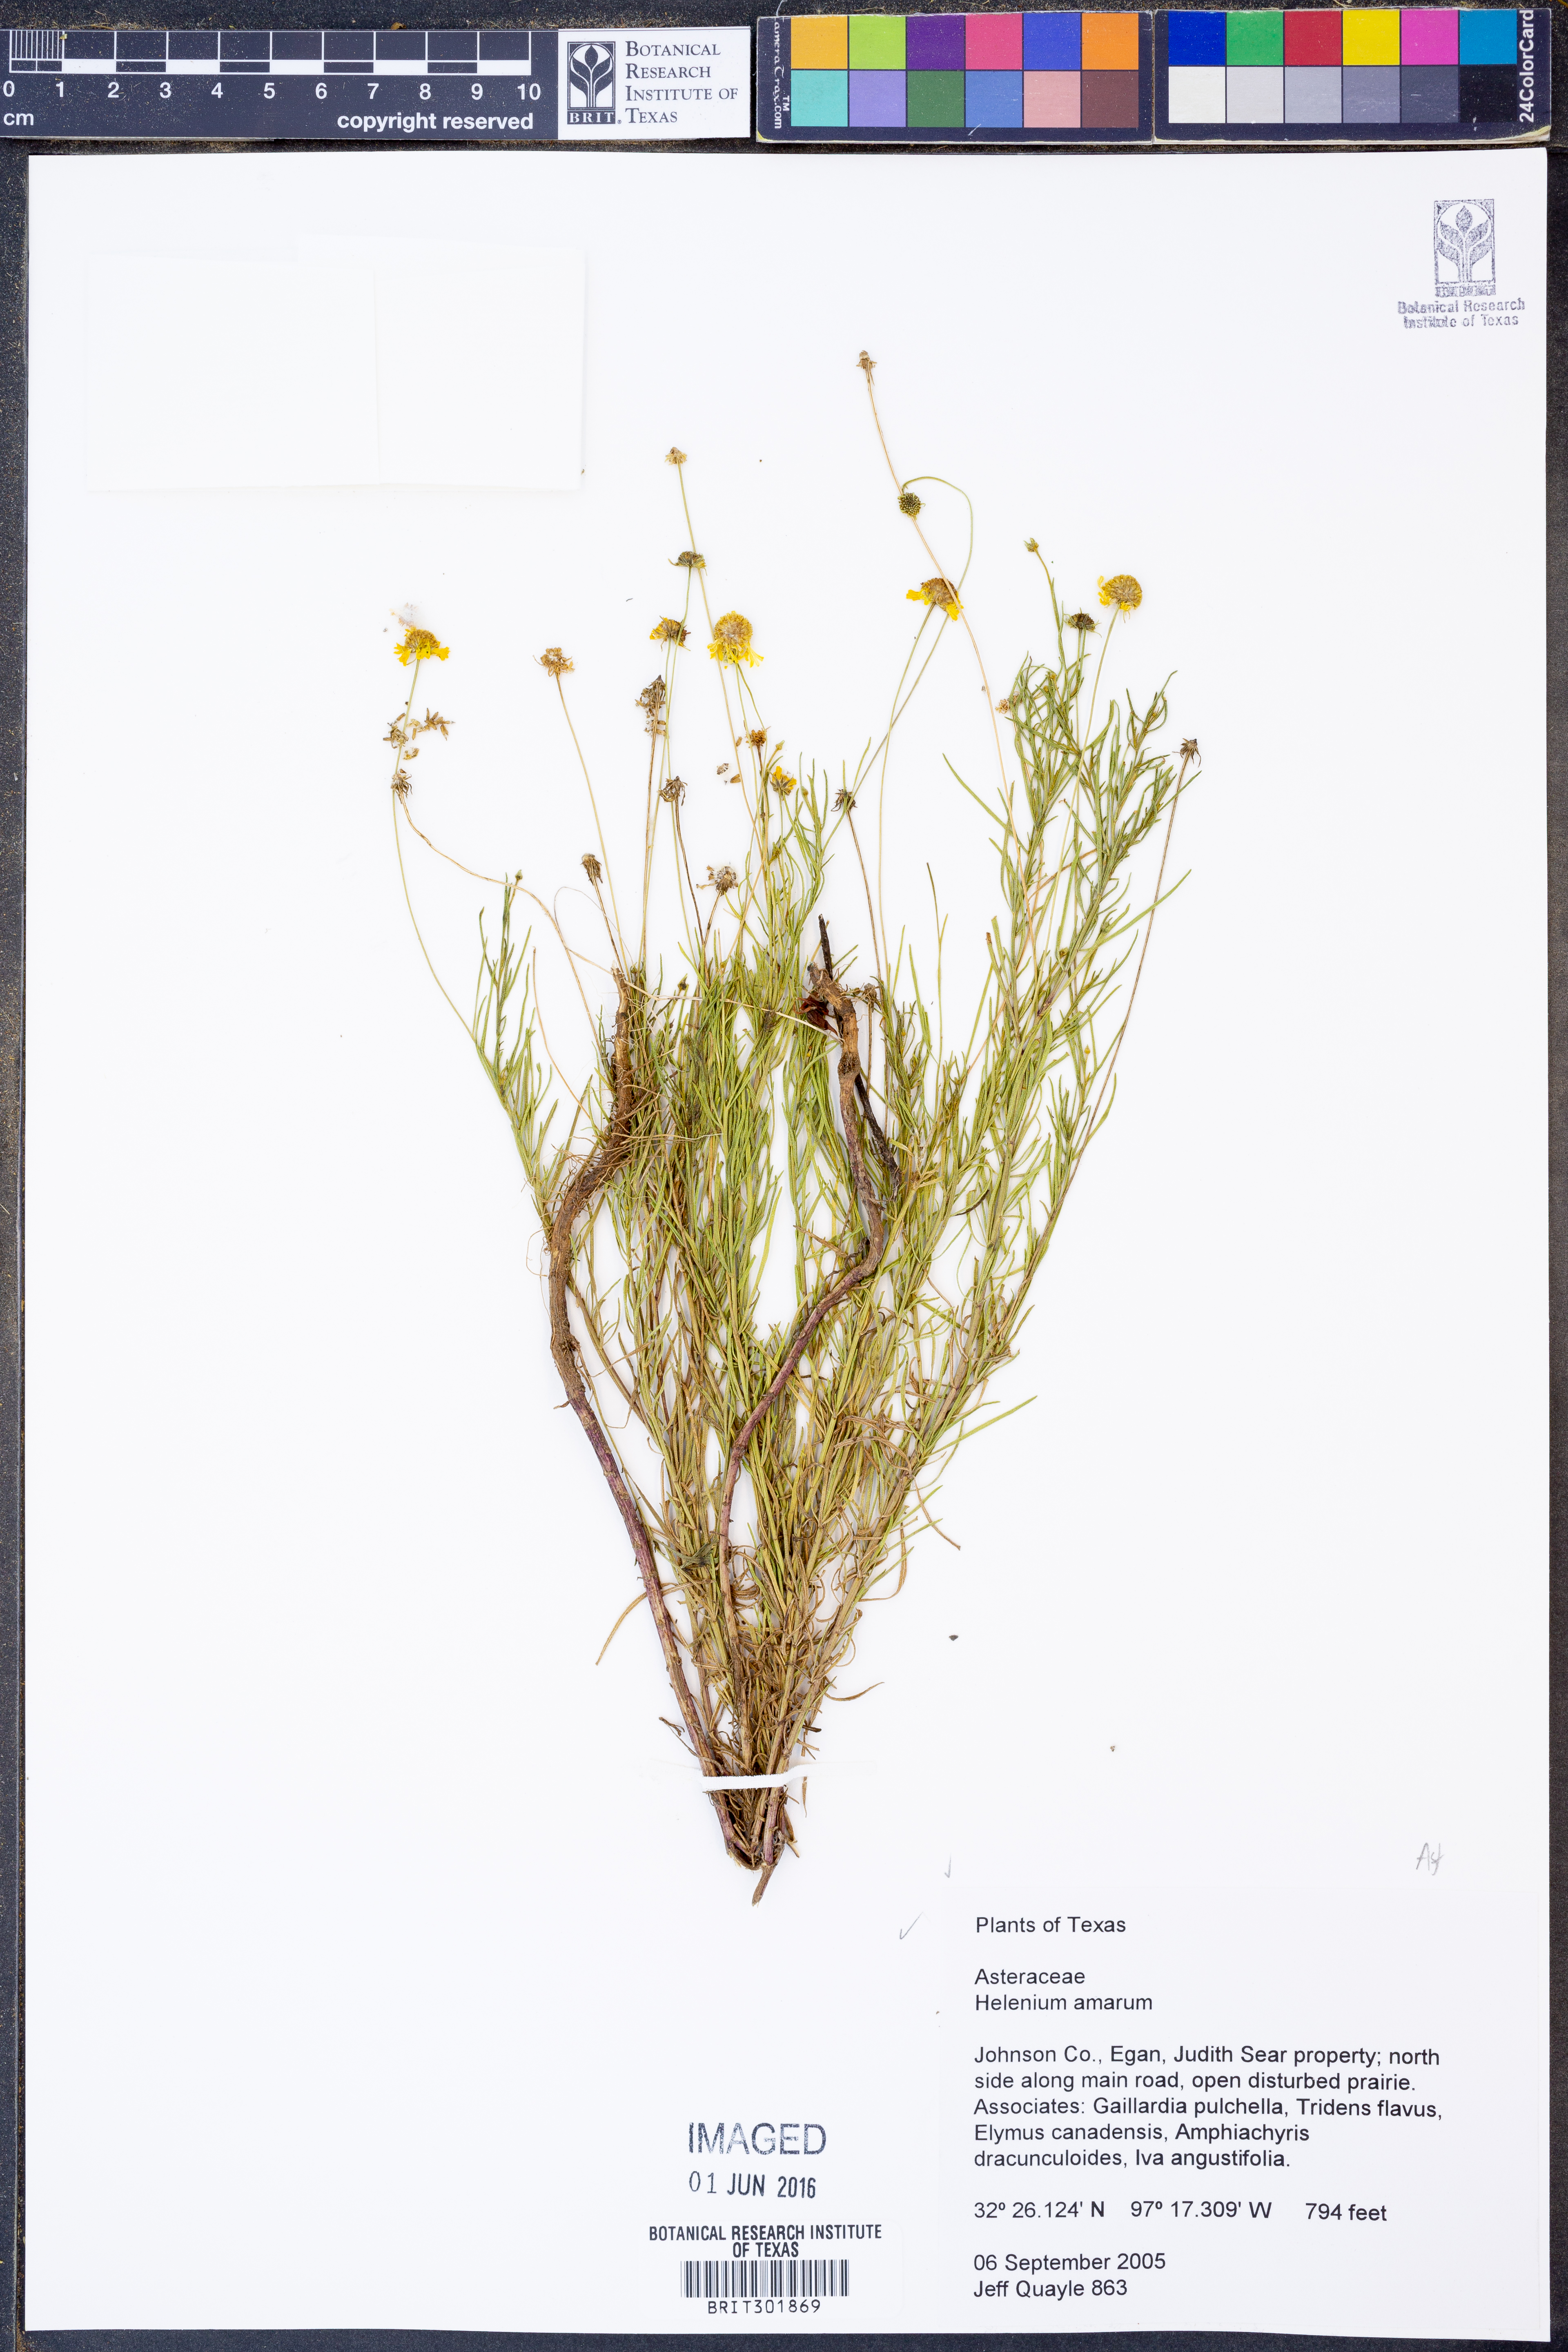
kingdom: Plantae
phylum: Tracheophyta
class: Magnoliopsida
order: Asterales
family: Asteraceae
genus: Helenium
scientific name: Helenium amarum
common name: Bitter sneezeweed
